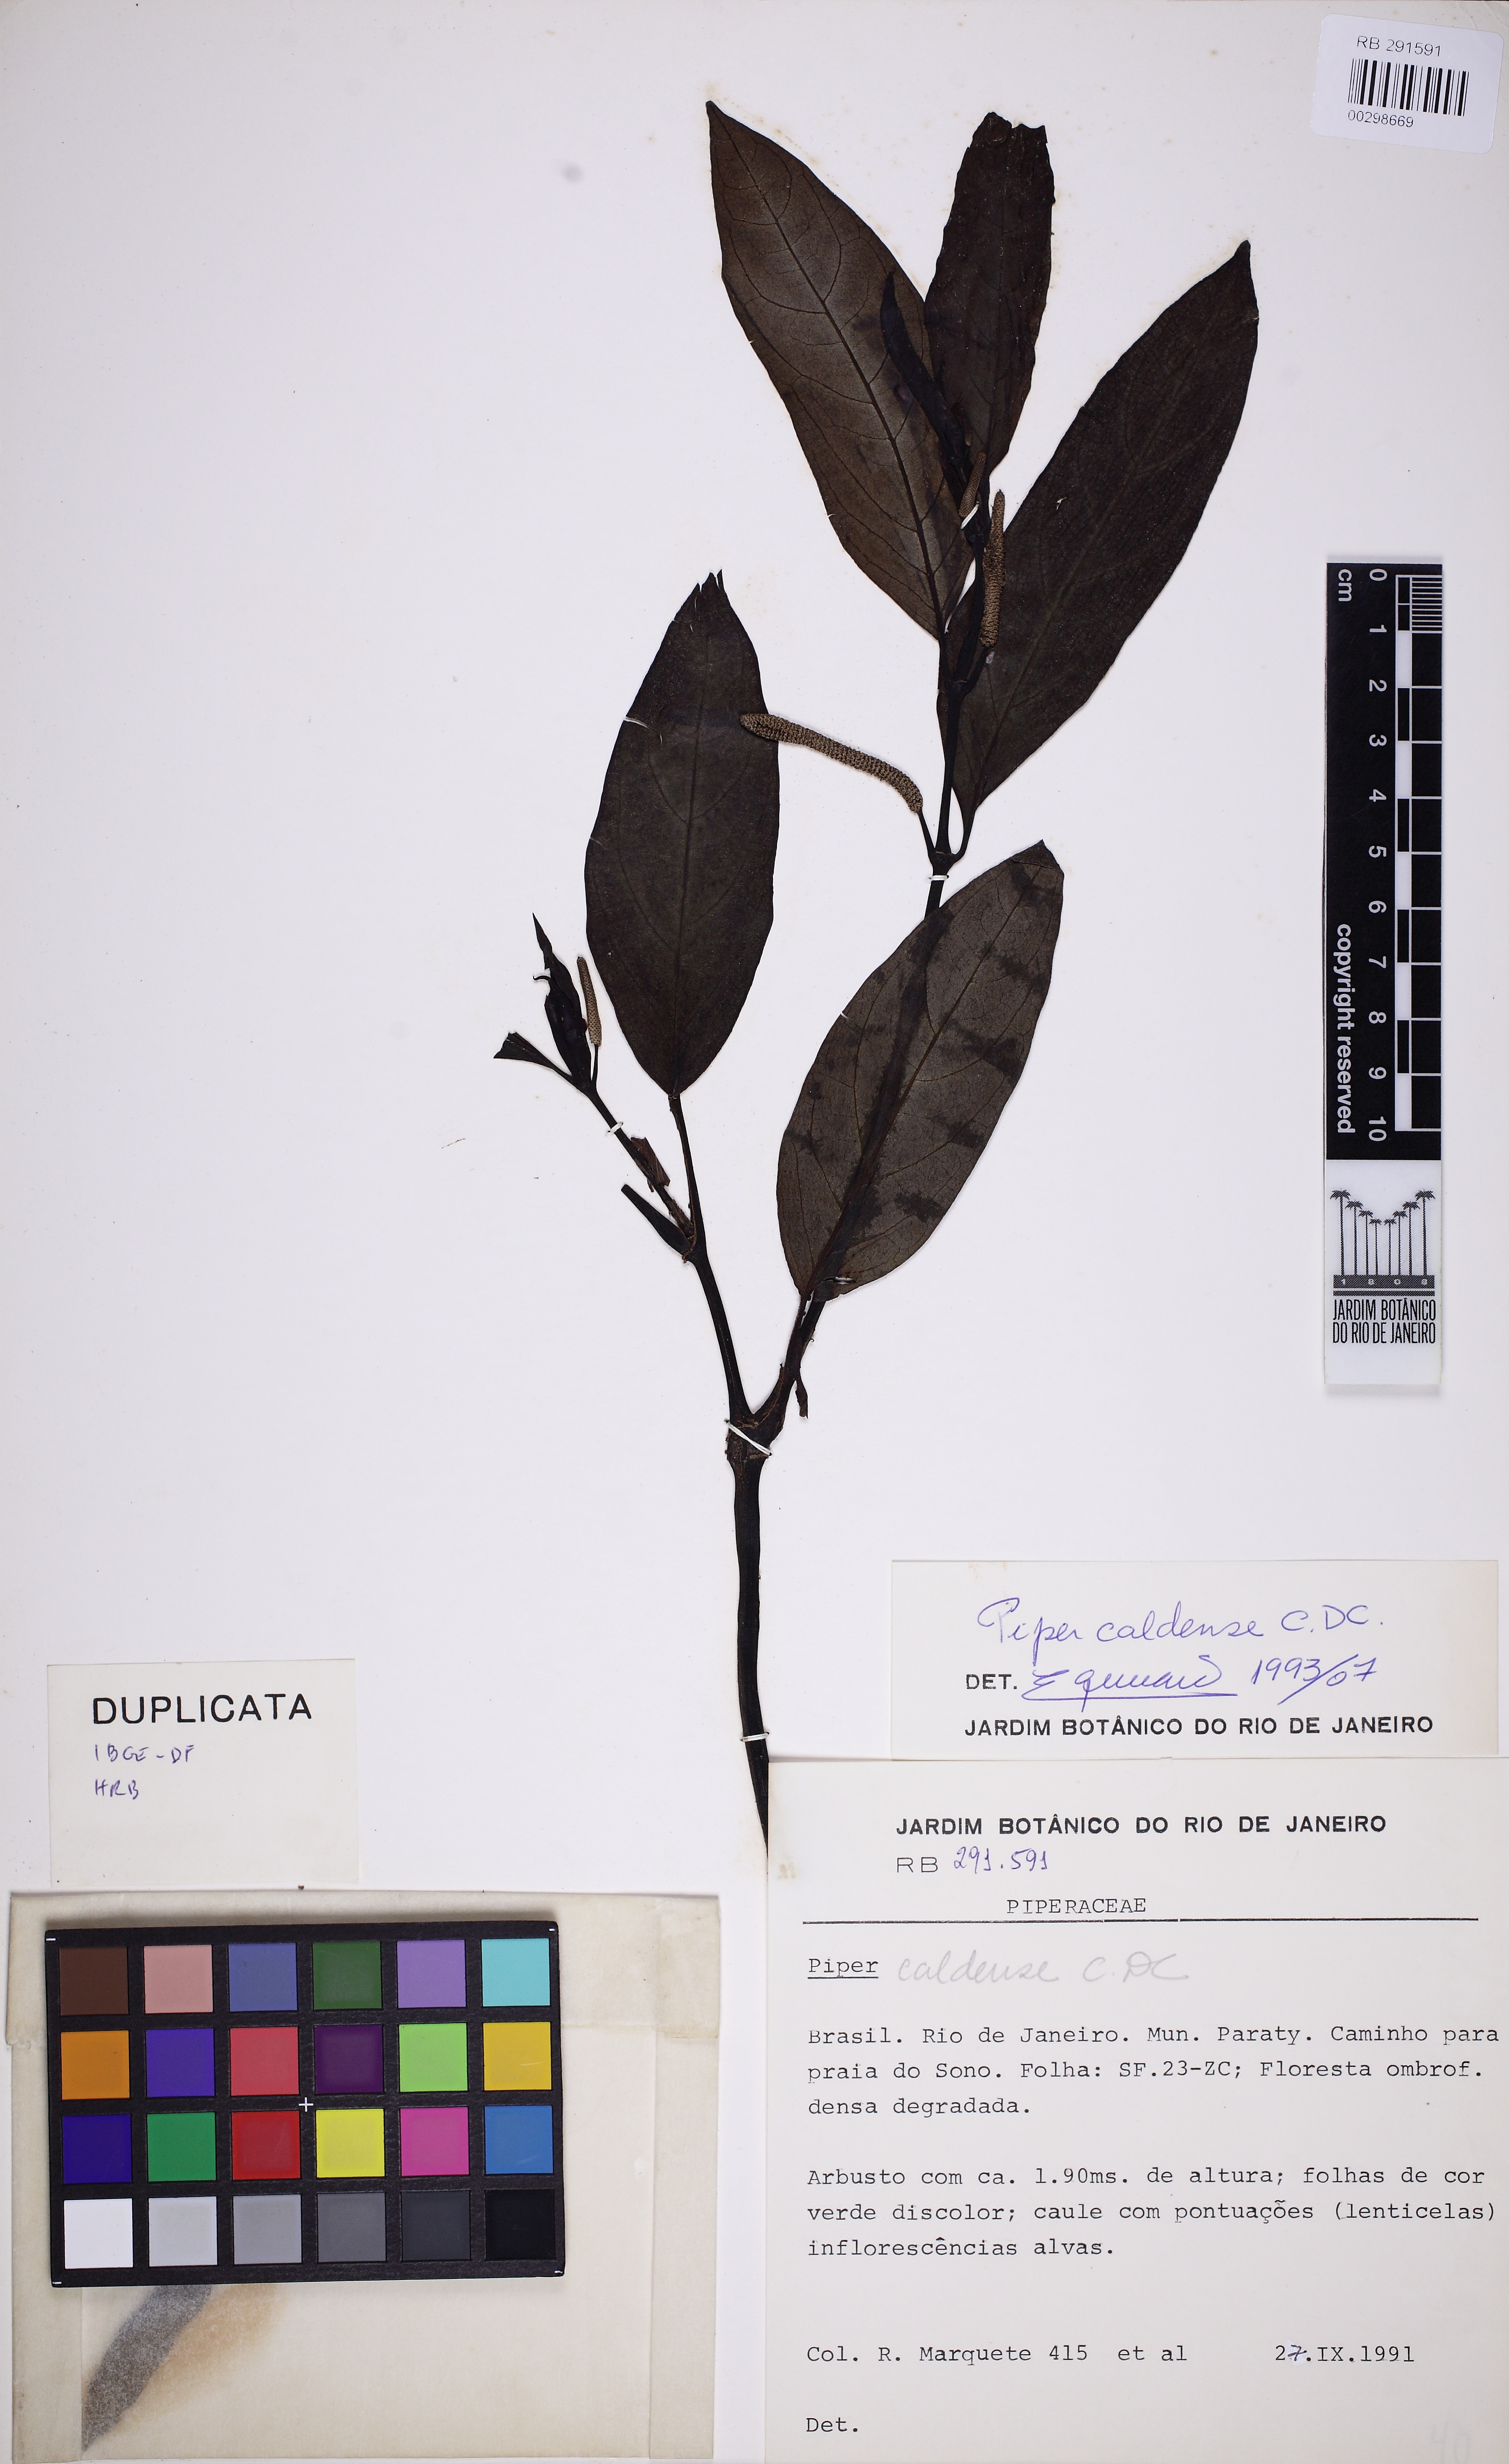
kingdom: Plantae
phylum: Tracheophyta
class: Magnoliopsida
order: Piperales
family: Piperaceae
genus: Piper
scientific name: Piper caldense
